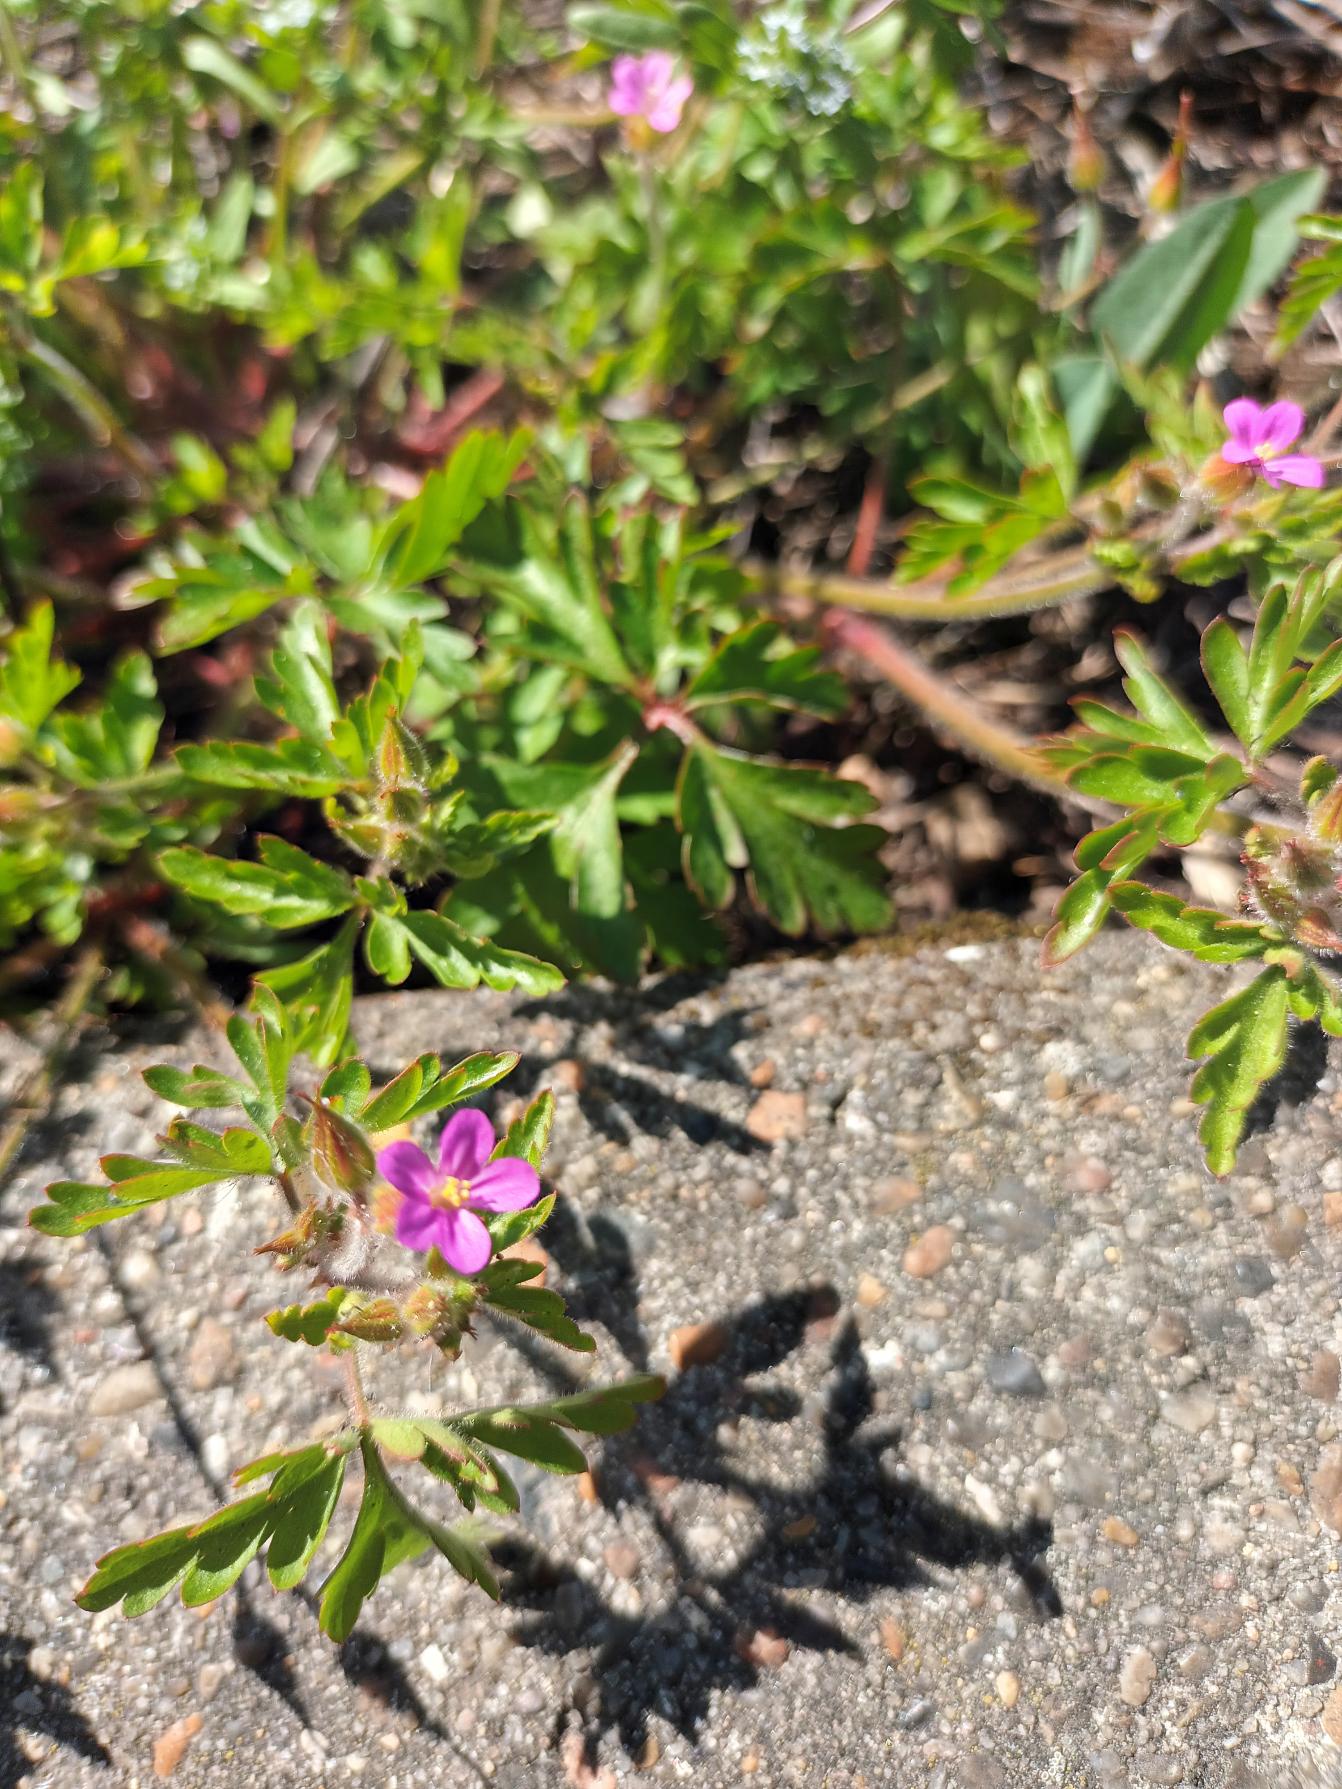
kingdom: Plantae
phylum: Tracheophyta
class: Magnoliopsida
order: Geraniales
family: Geraniaceae
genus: Geranium
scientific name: Geranium purpureum
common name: Purpur-storkenæb
